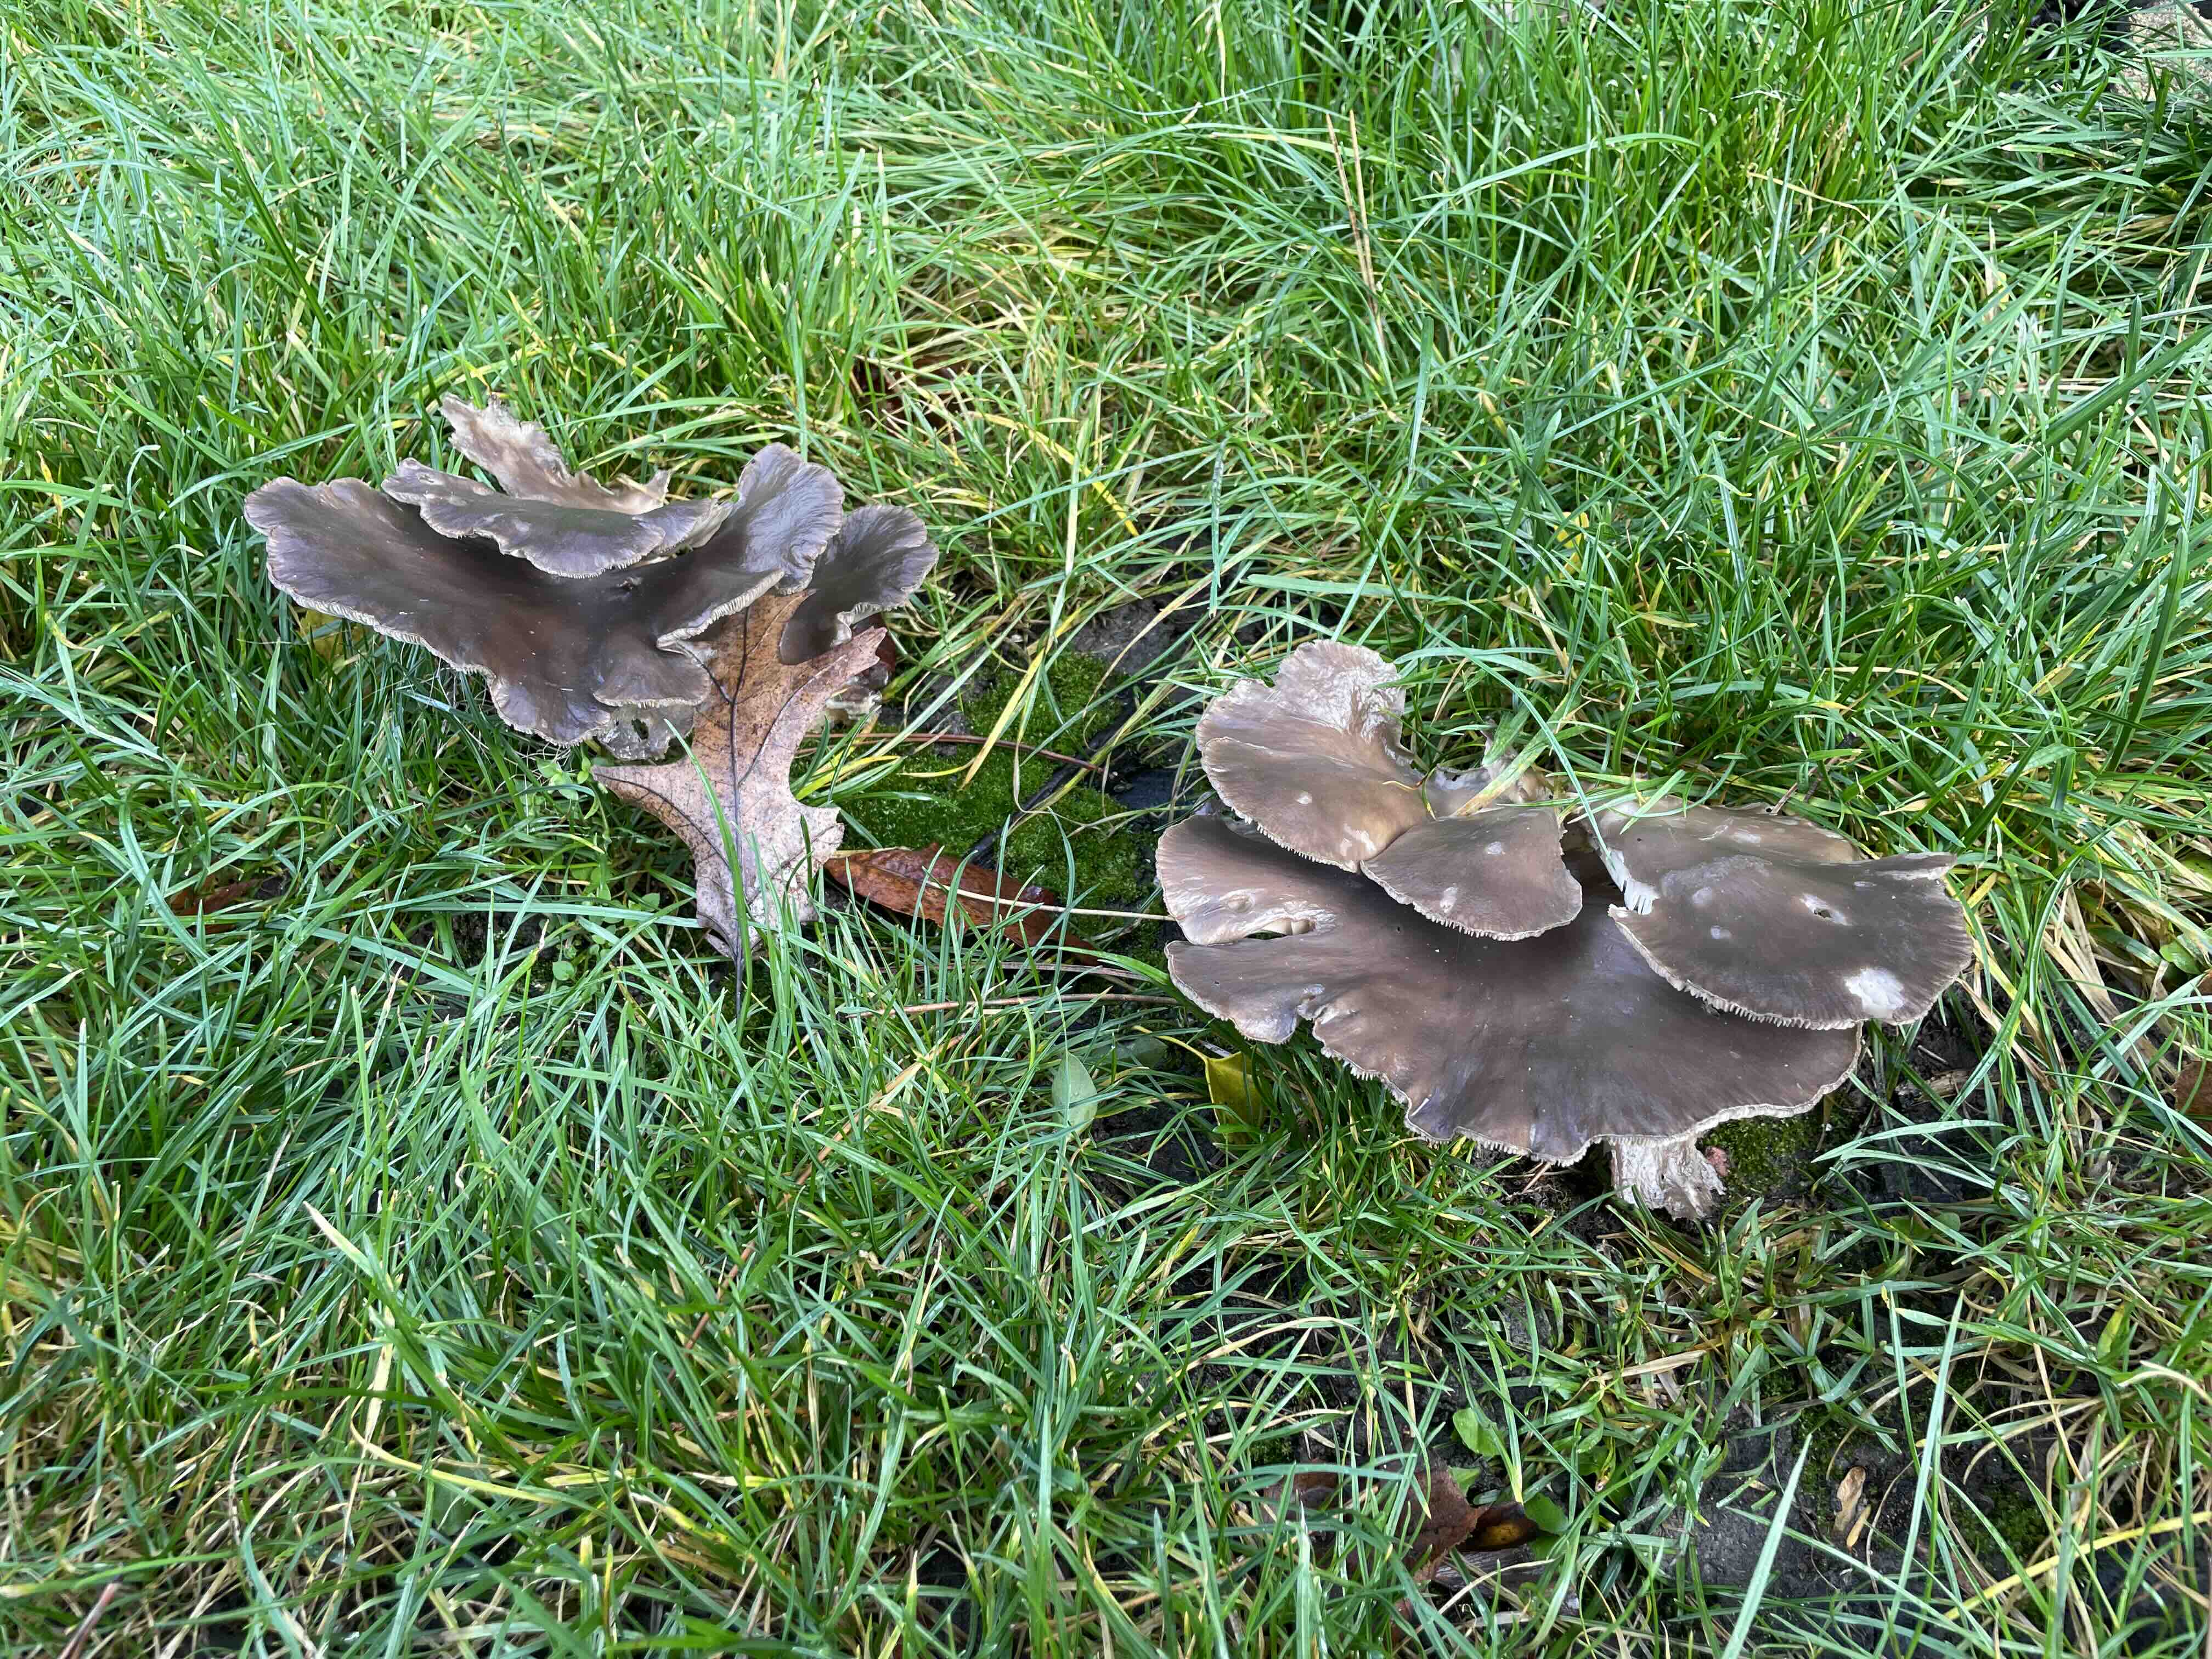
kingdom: Fungi
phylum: Basidiomycota
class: Agaricomycetes
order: Agaricales
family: Pleurotaceae
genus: Pleurotus
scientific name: Pleurotus ostreatus
